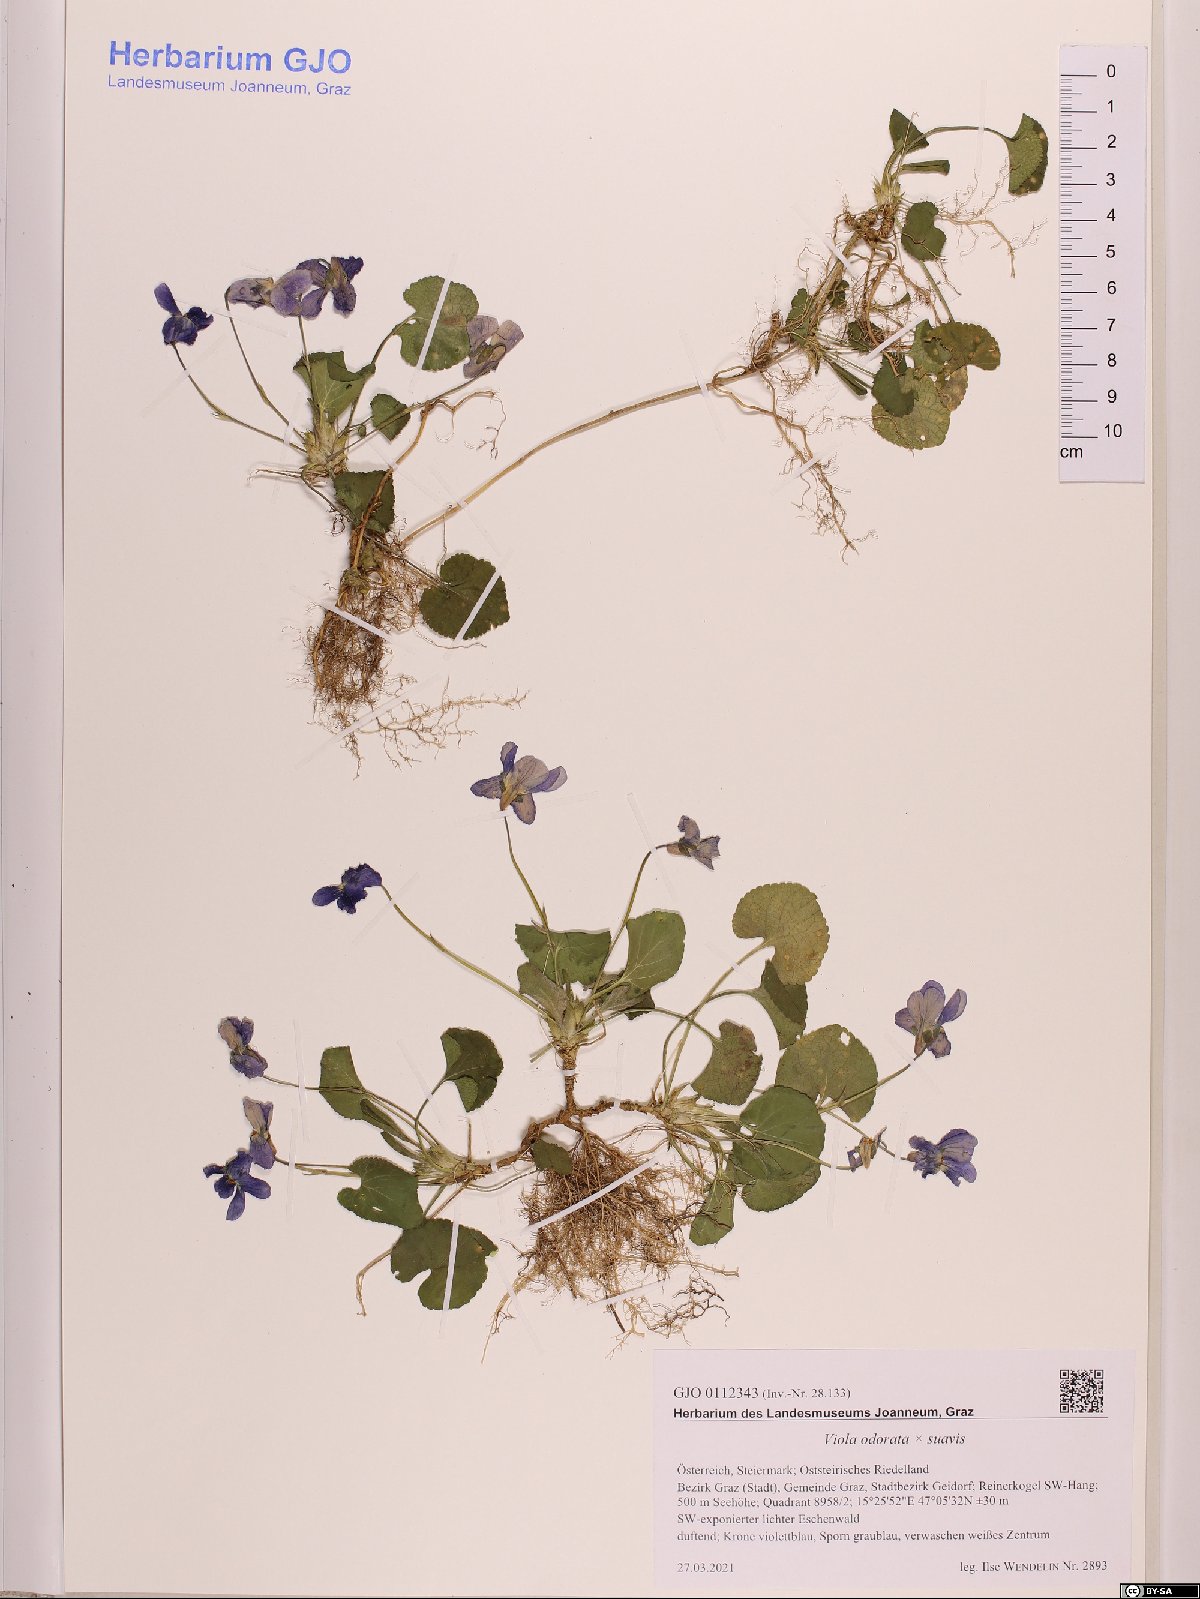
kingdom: Plantae
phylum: Tracheophyta
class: Magnoliopsida
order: Malpighiales
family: Violaceae
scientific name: Violaceae
